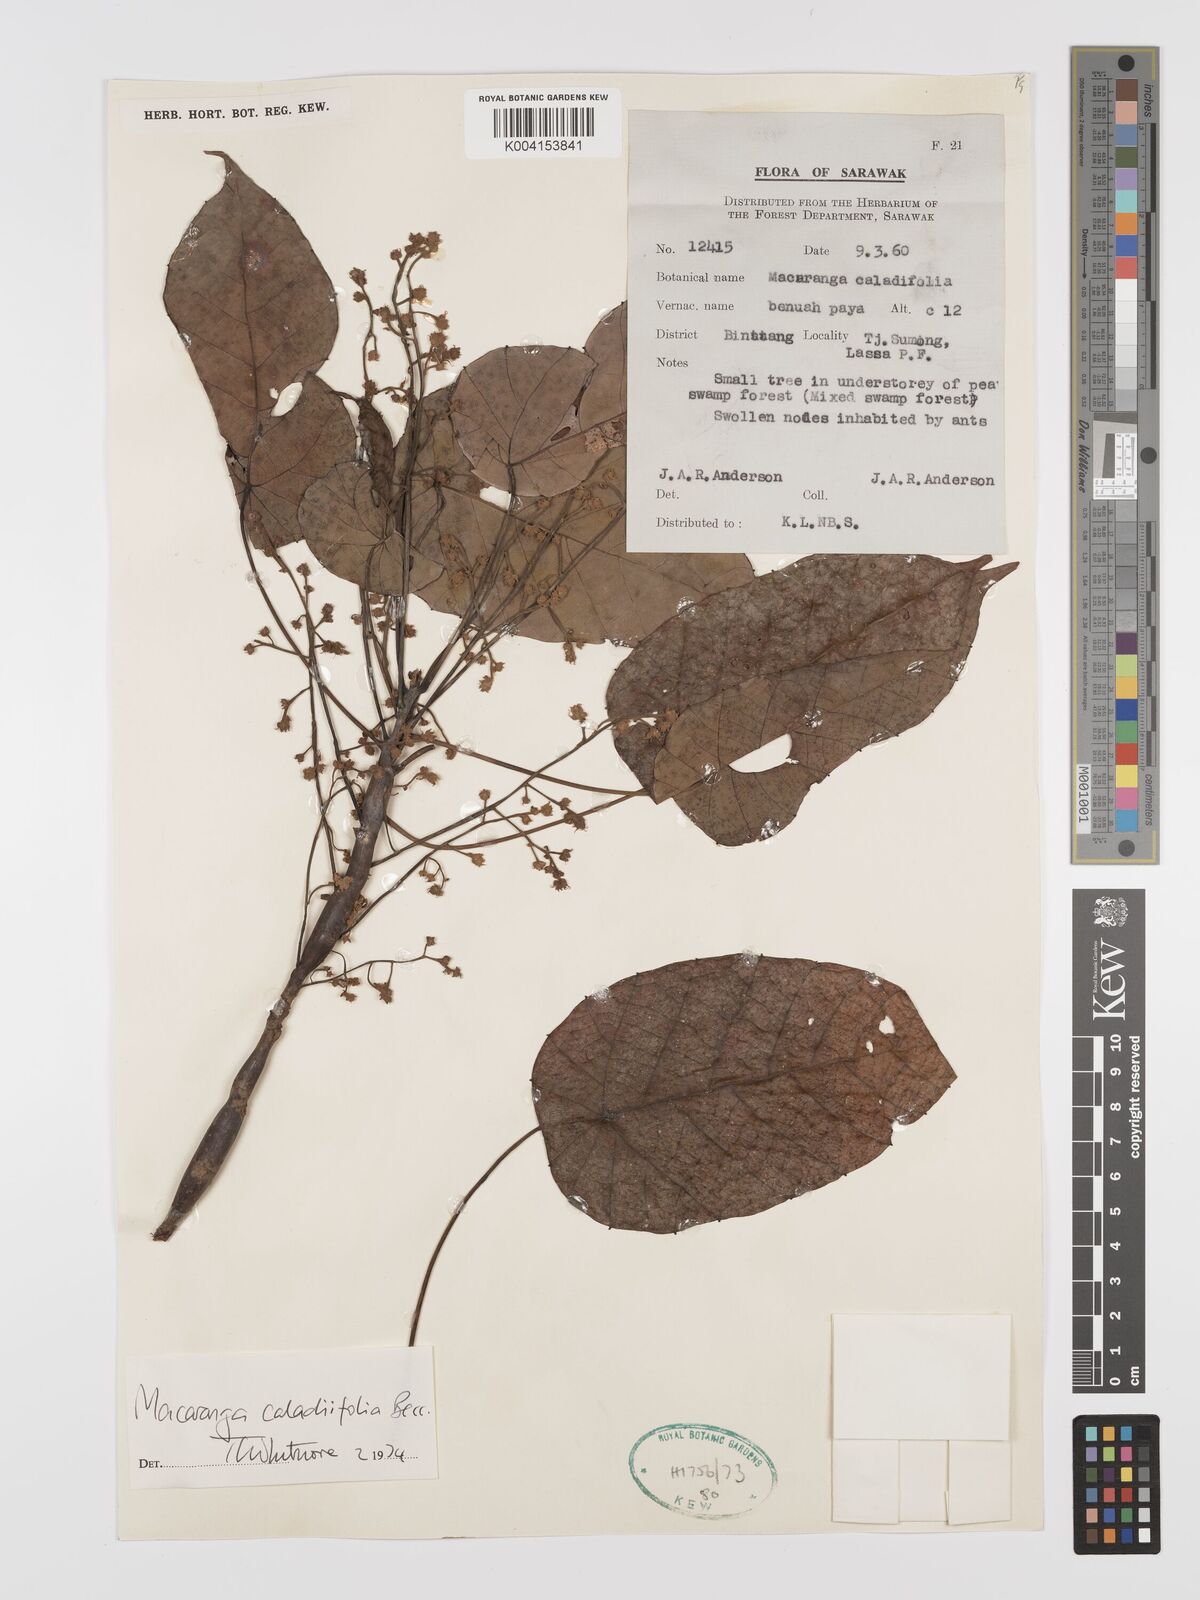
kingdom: Plantae
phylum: Tracheophyta
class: Magnoliopsida
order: Malpighiales
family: Euphorbiaceae
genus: Macaranga
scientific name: Macaranga caladiifolia
